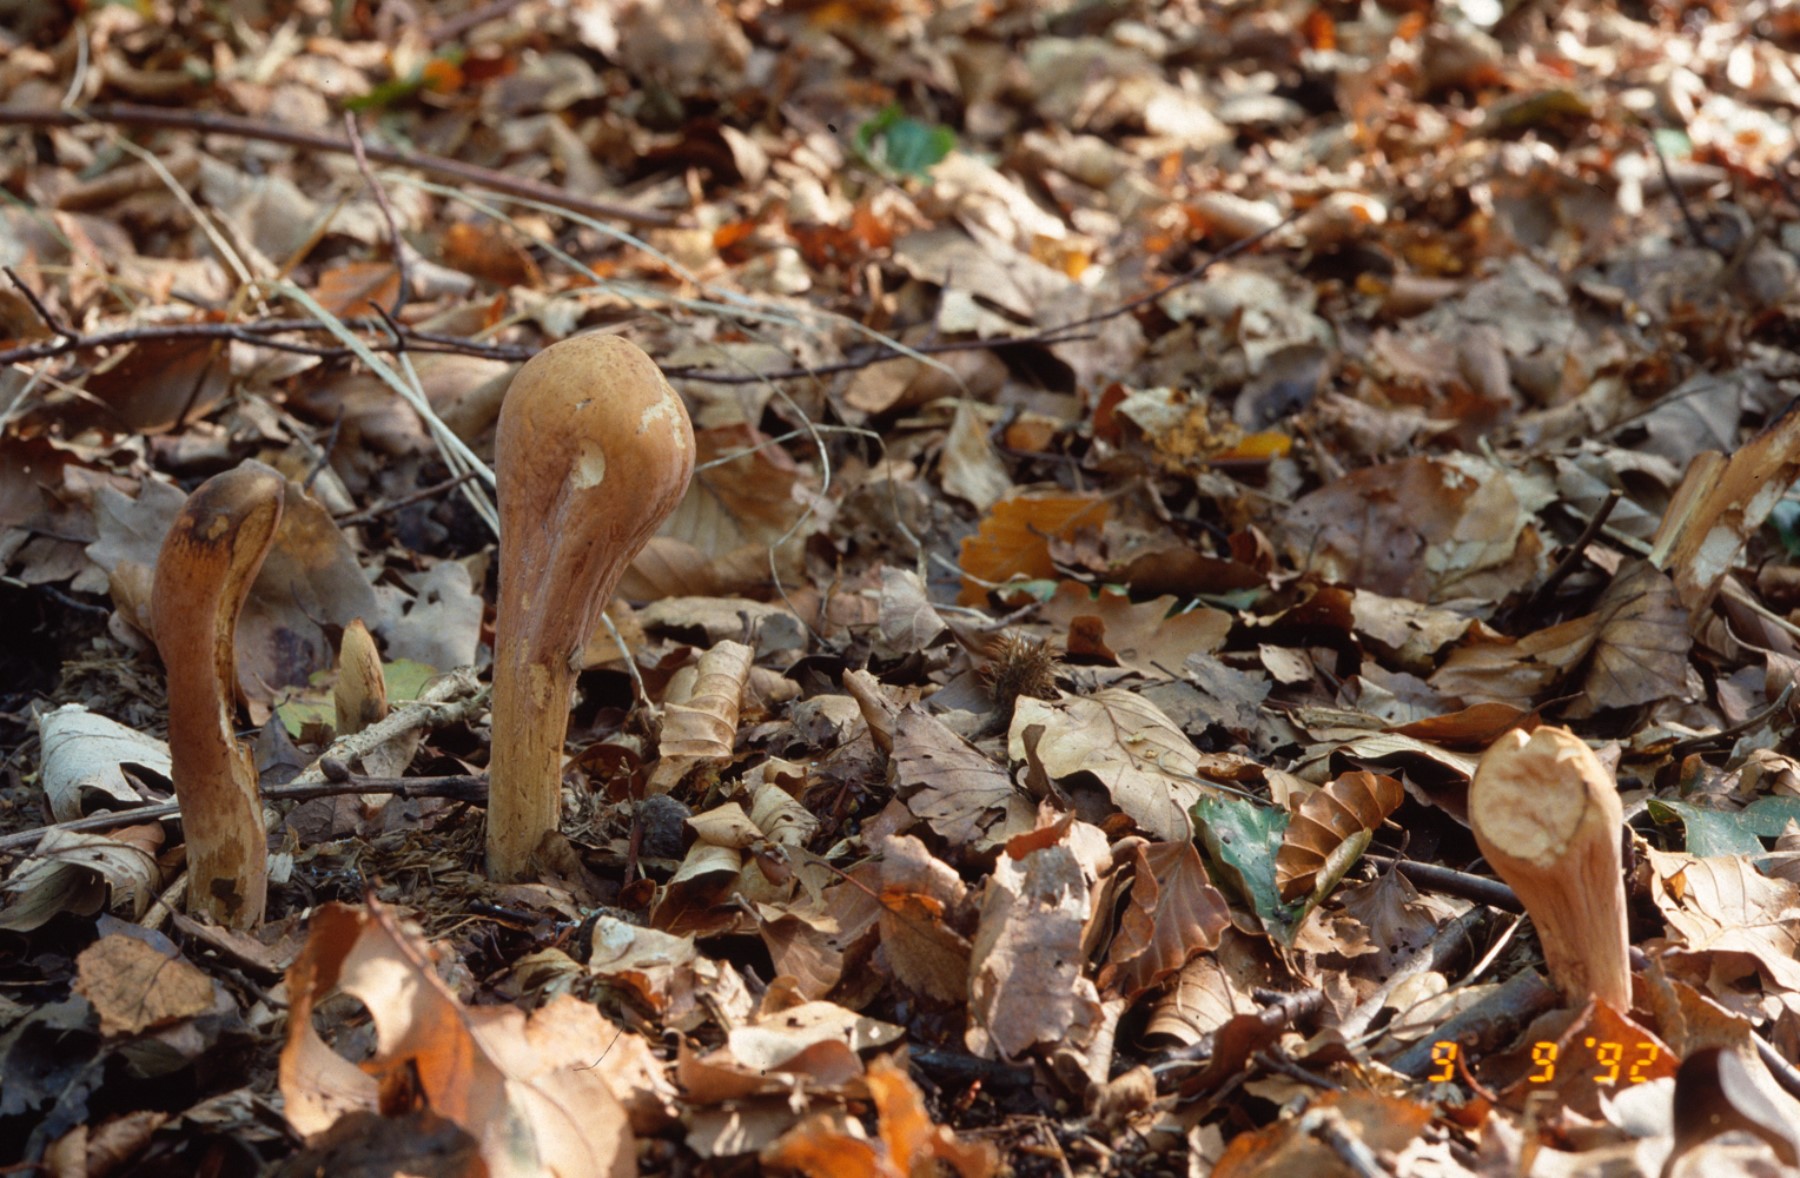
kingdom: Fungi
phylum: Basidiomycota
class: Agaricomycetes
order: Gomphales
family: Clavariadelphaceae
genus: Clavariadelphus
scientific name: Clavariadelphus pistillaris
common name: herkules-kæmpekølle
